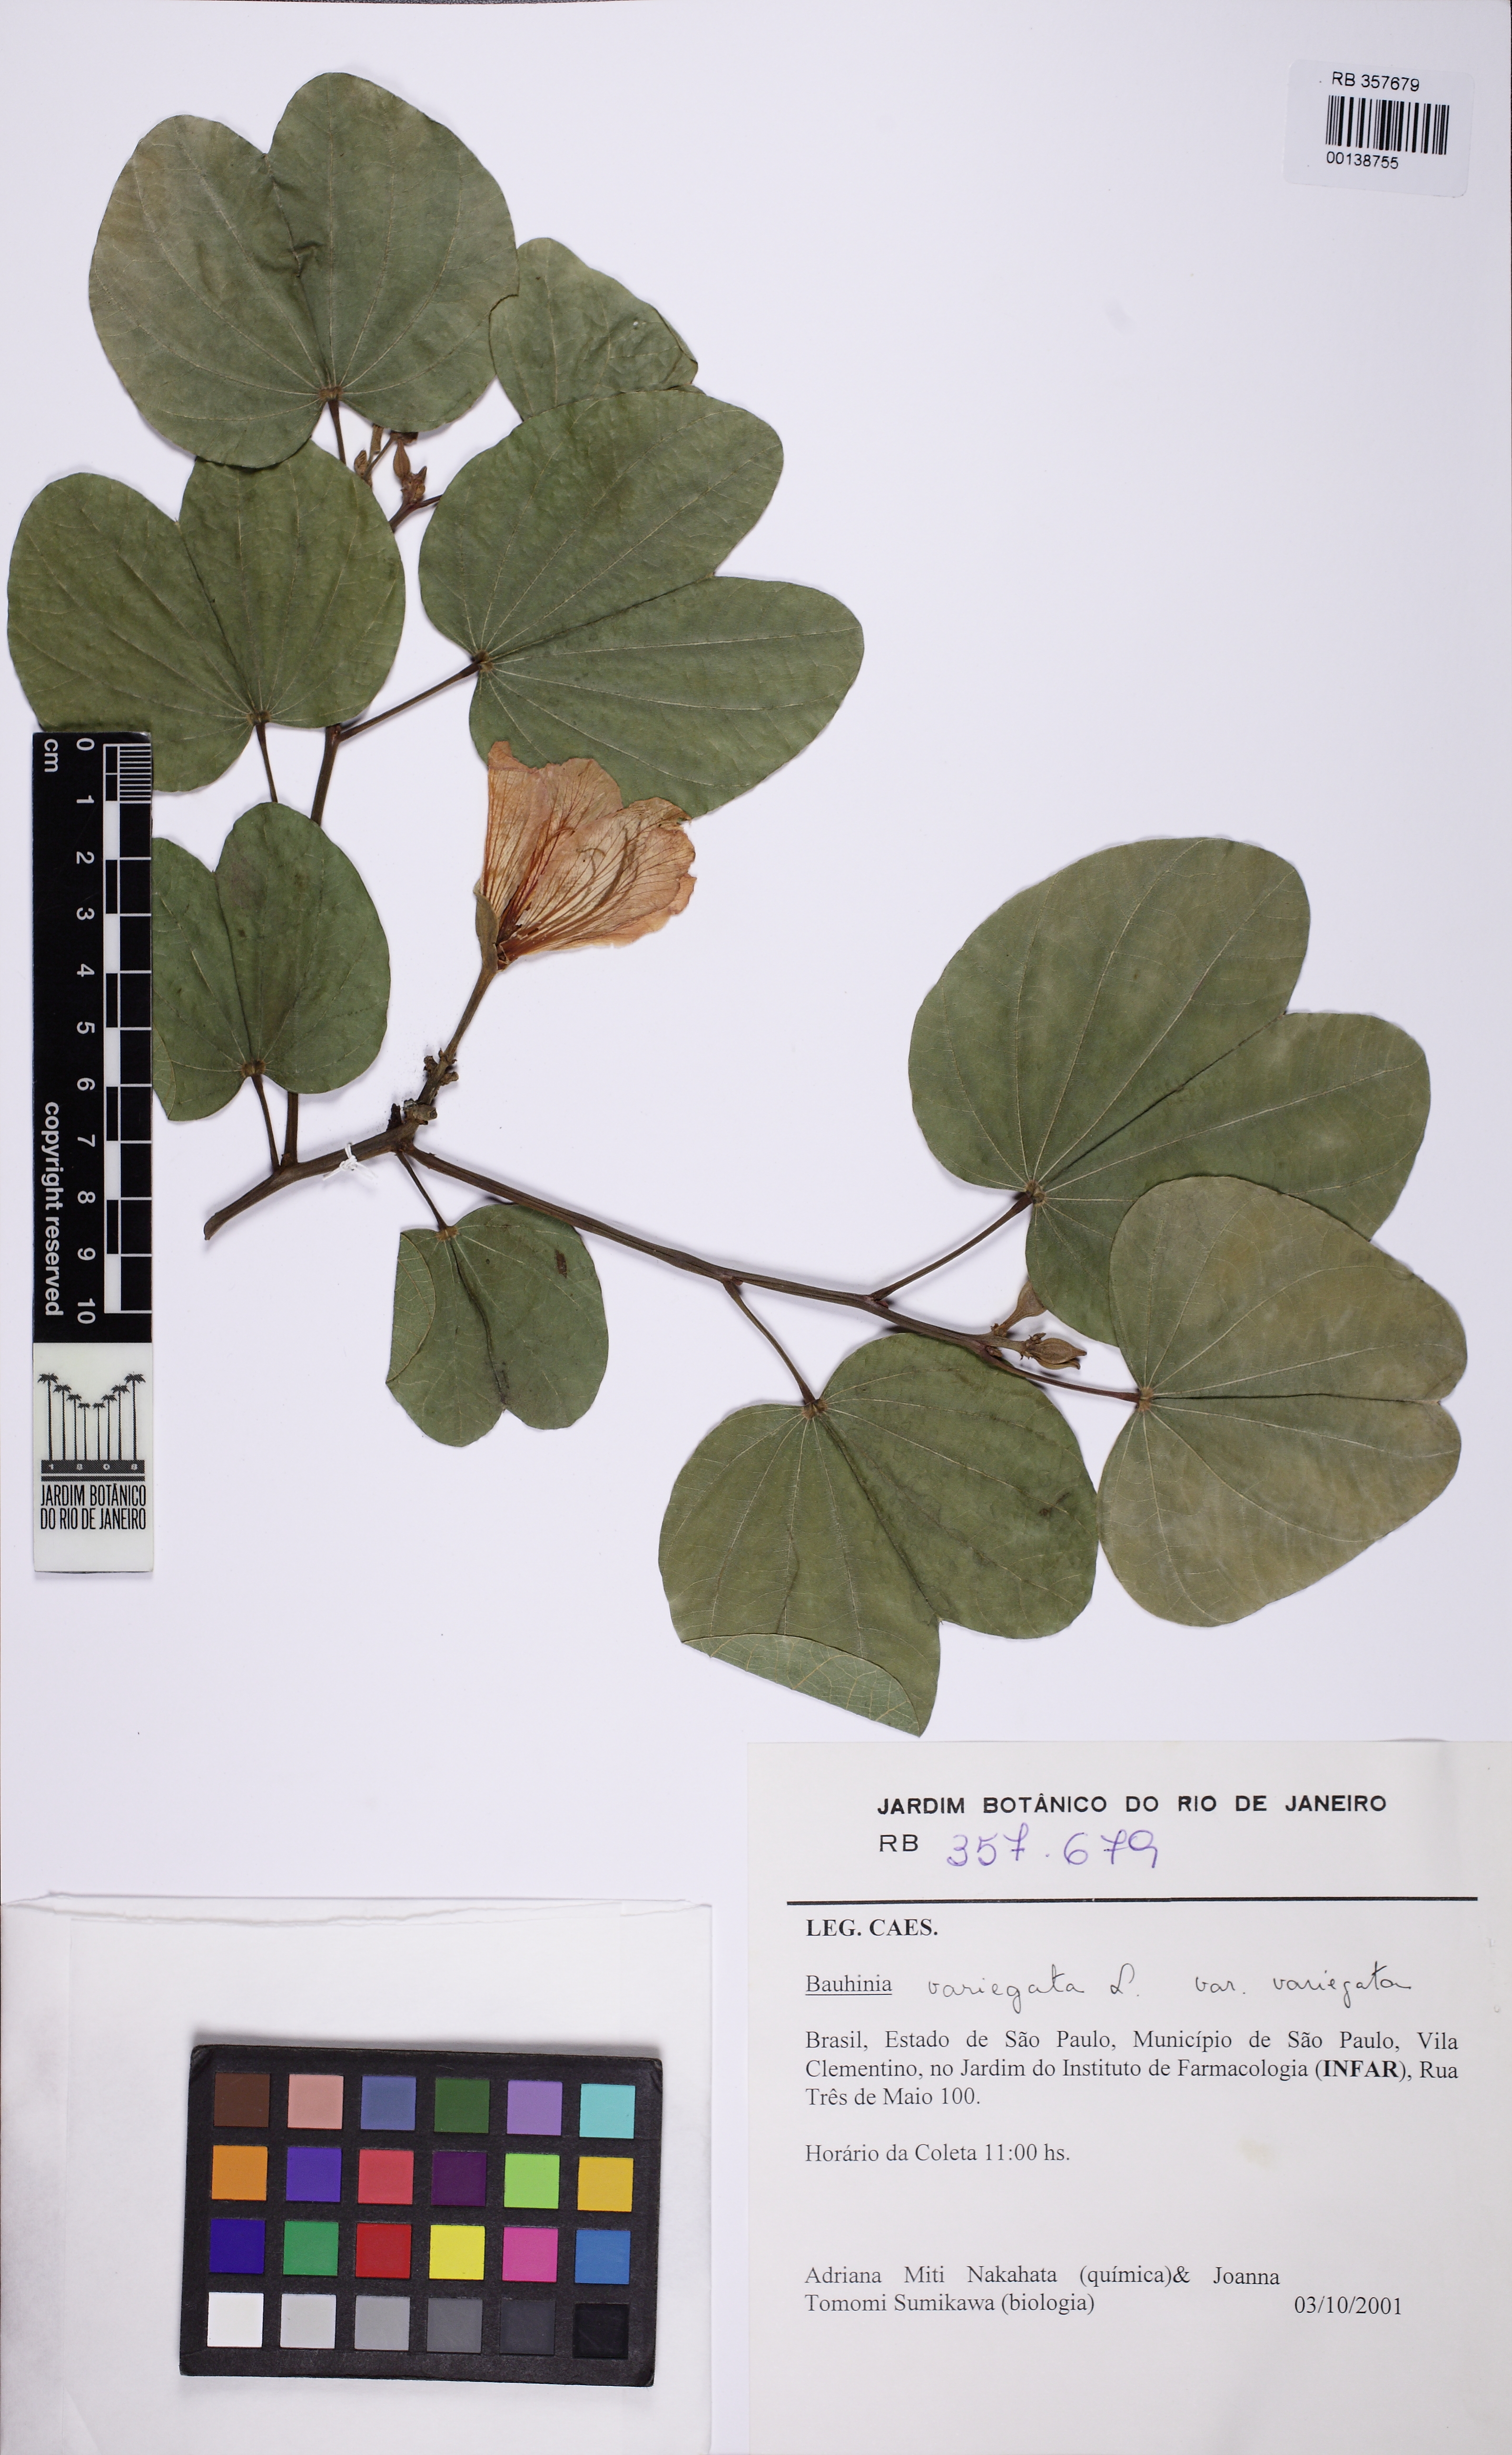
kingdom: Plantae
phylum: Tracheophyta
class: Magnoliopsida
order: Fabales
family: Fabaceae
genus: Bauhinia
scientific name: Bauhinia variegata
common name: Mountain ebony
